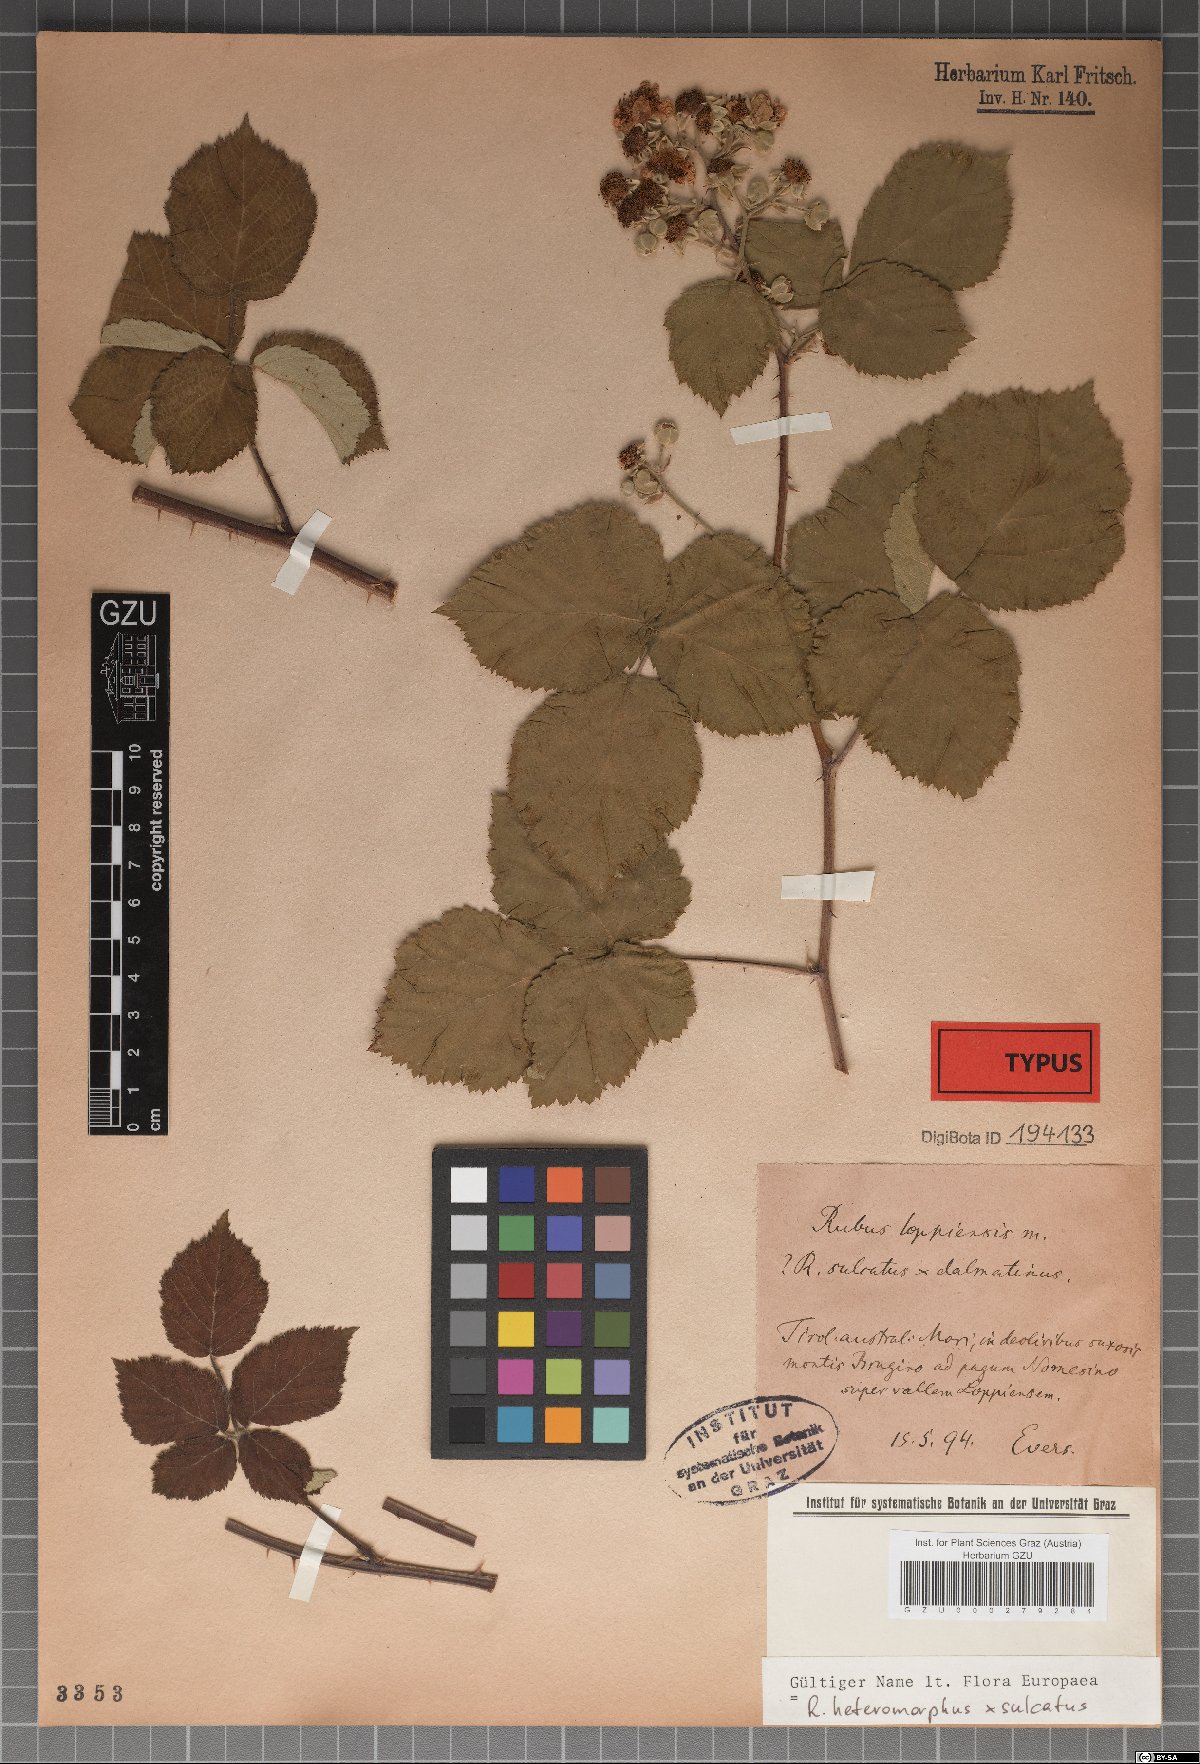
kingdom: Plantae
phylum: Tracheophyta
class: Magnoliopsida
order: Rosales
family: Rosaceae
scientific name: Rosaceae
